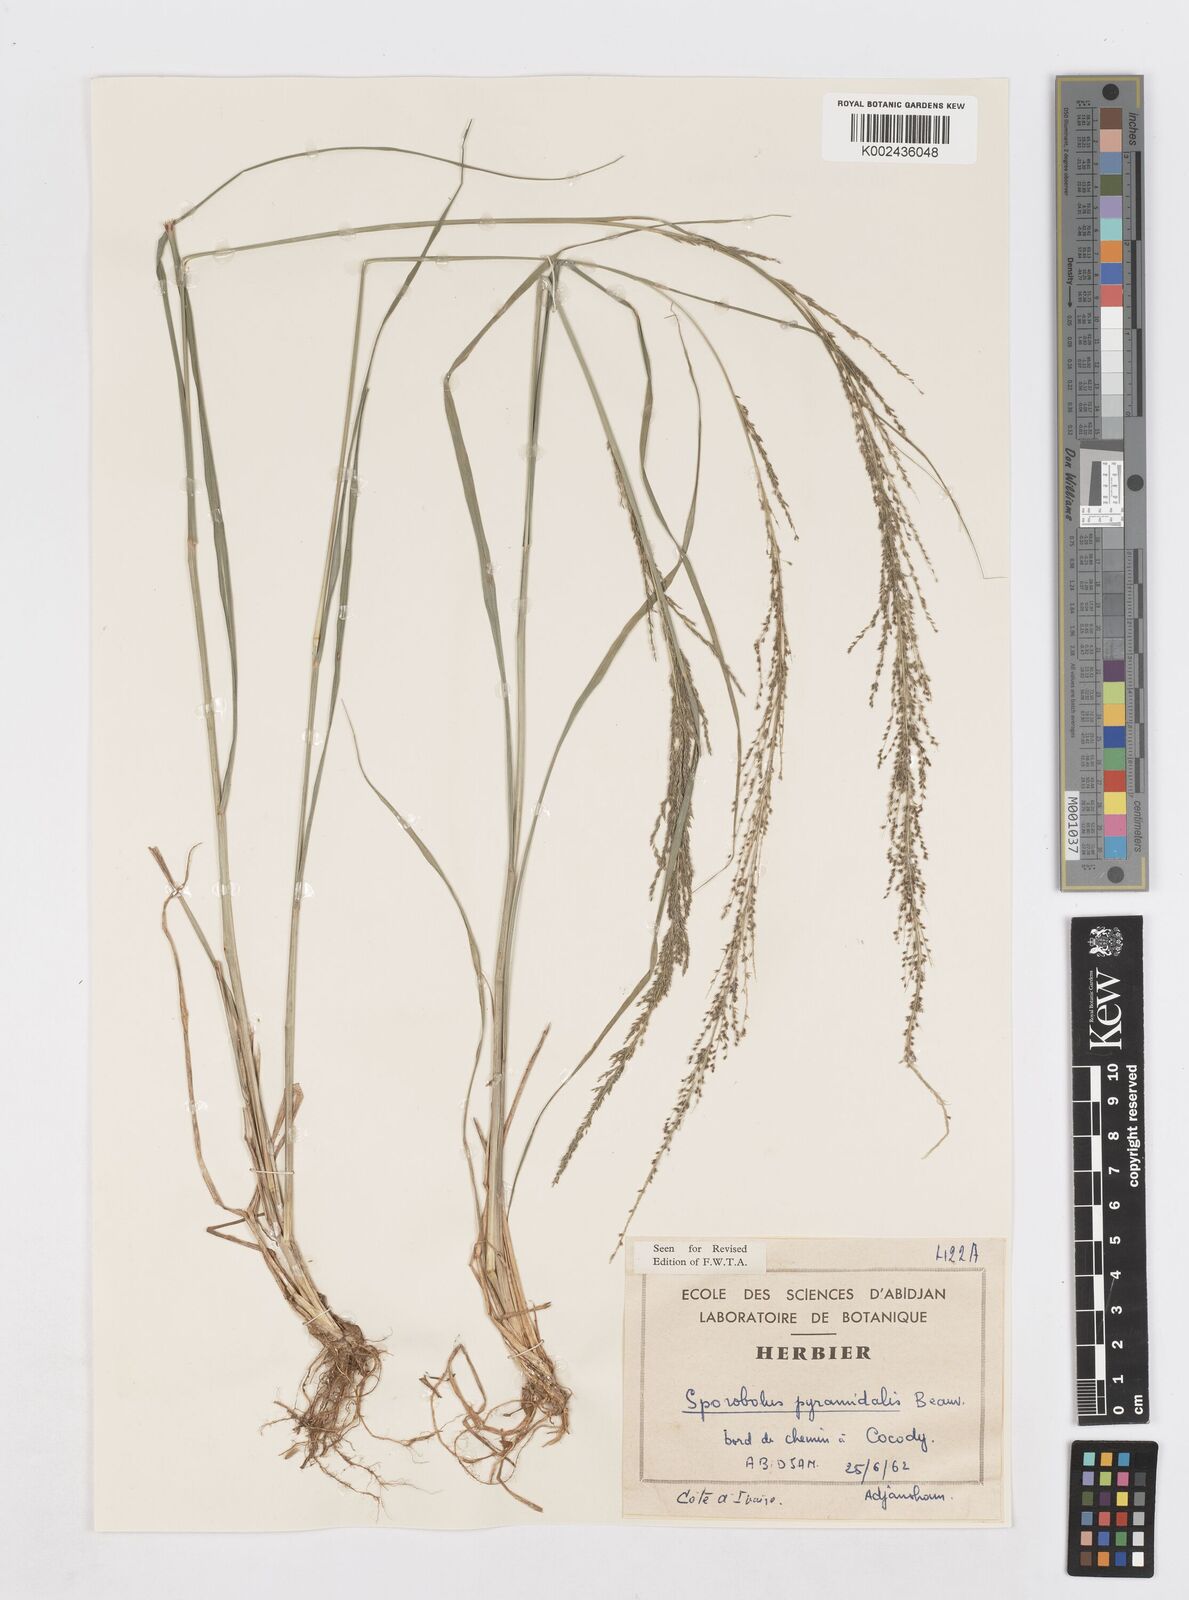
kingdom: Plantae
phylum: Tracheophyta
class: Liliopsida
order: Poales
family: Poaceae
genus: Sporobolus
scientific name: Sporobolus pyramidalis
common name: West indian dropseed
